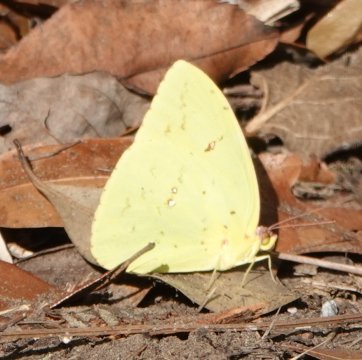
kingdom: Animalia
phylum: Arthropoda
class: Insecta
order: Lepidoptera
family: Pieridae
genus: Phoebis
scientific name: Phoebis sennae
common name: Cloudless Sulphur
